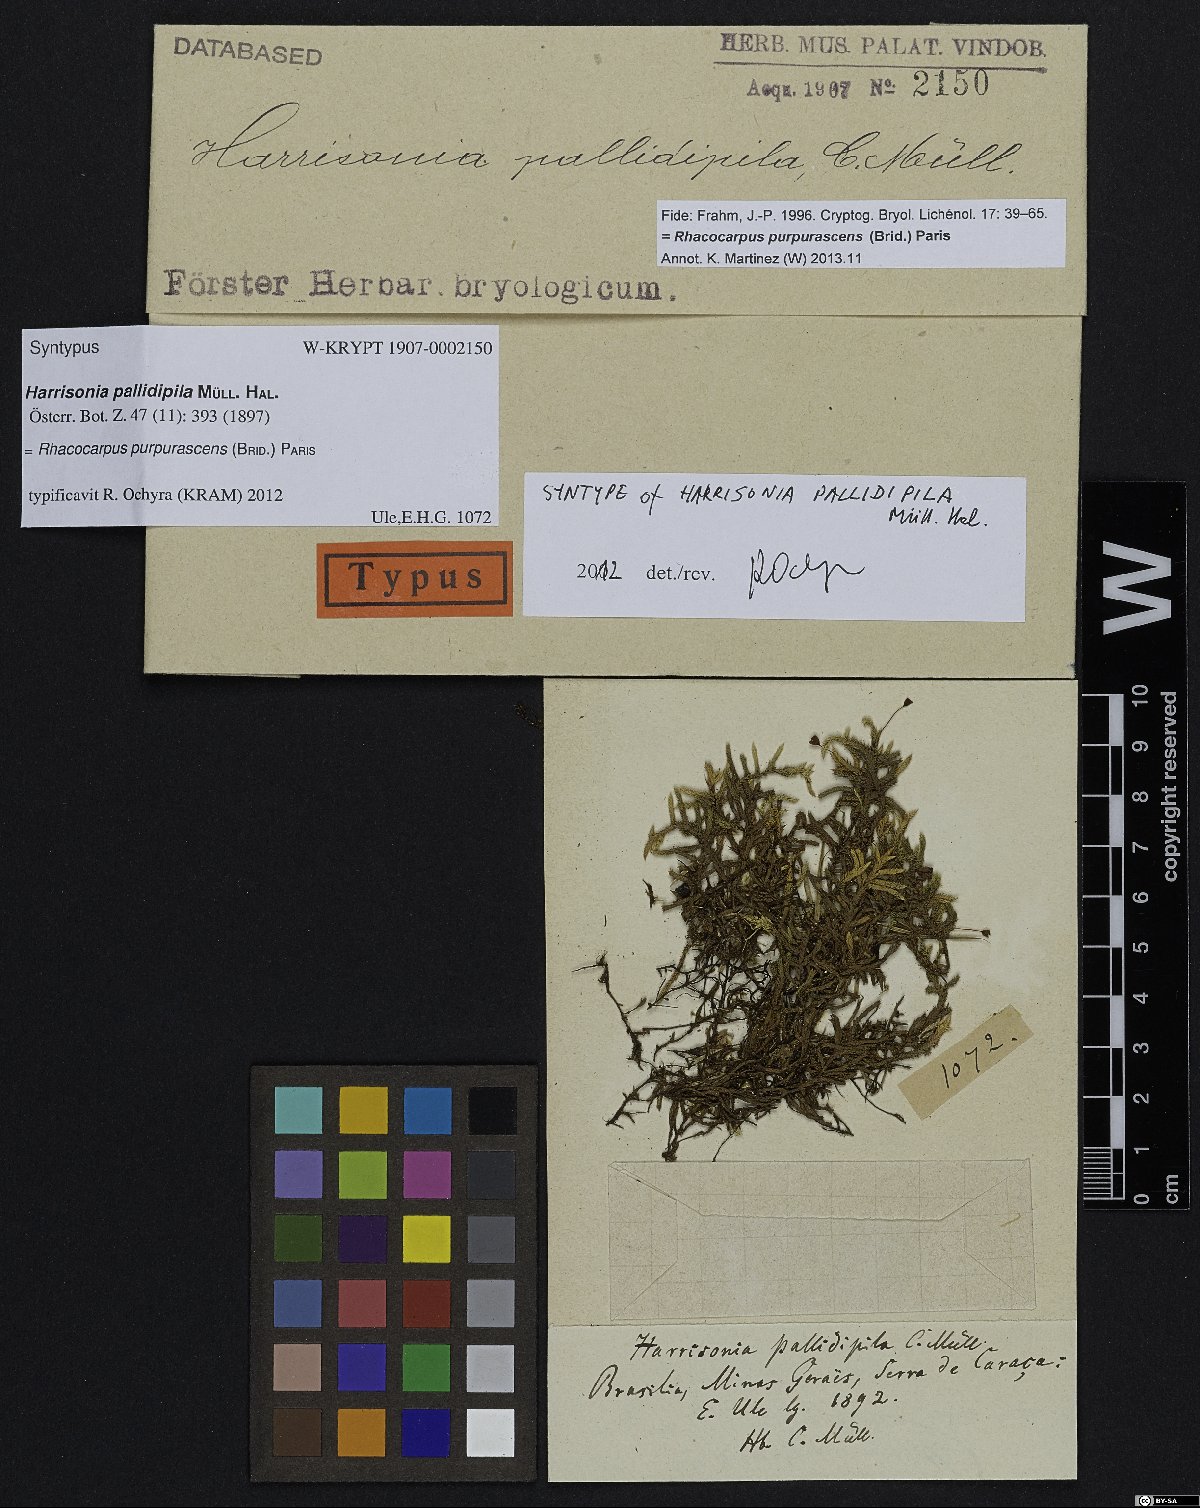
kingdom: Plantae
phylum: Bryophyta
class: Bryopsida
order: Hedwigiales
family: Hedwigiaceae
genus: Rhacocarpus
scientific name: Rhacocarpus purpurascens
